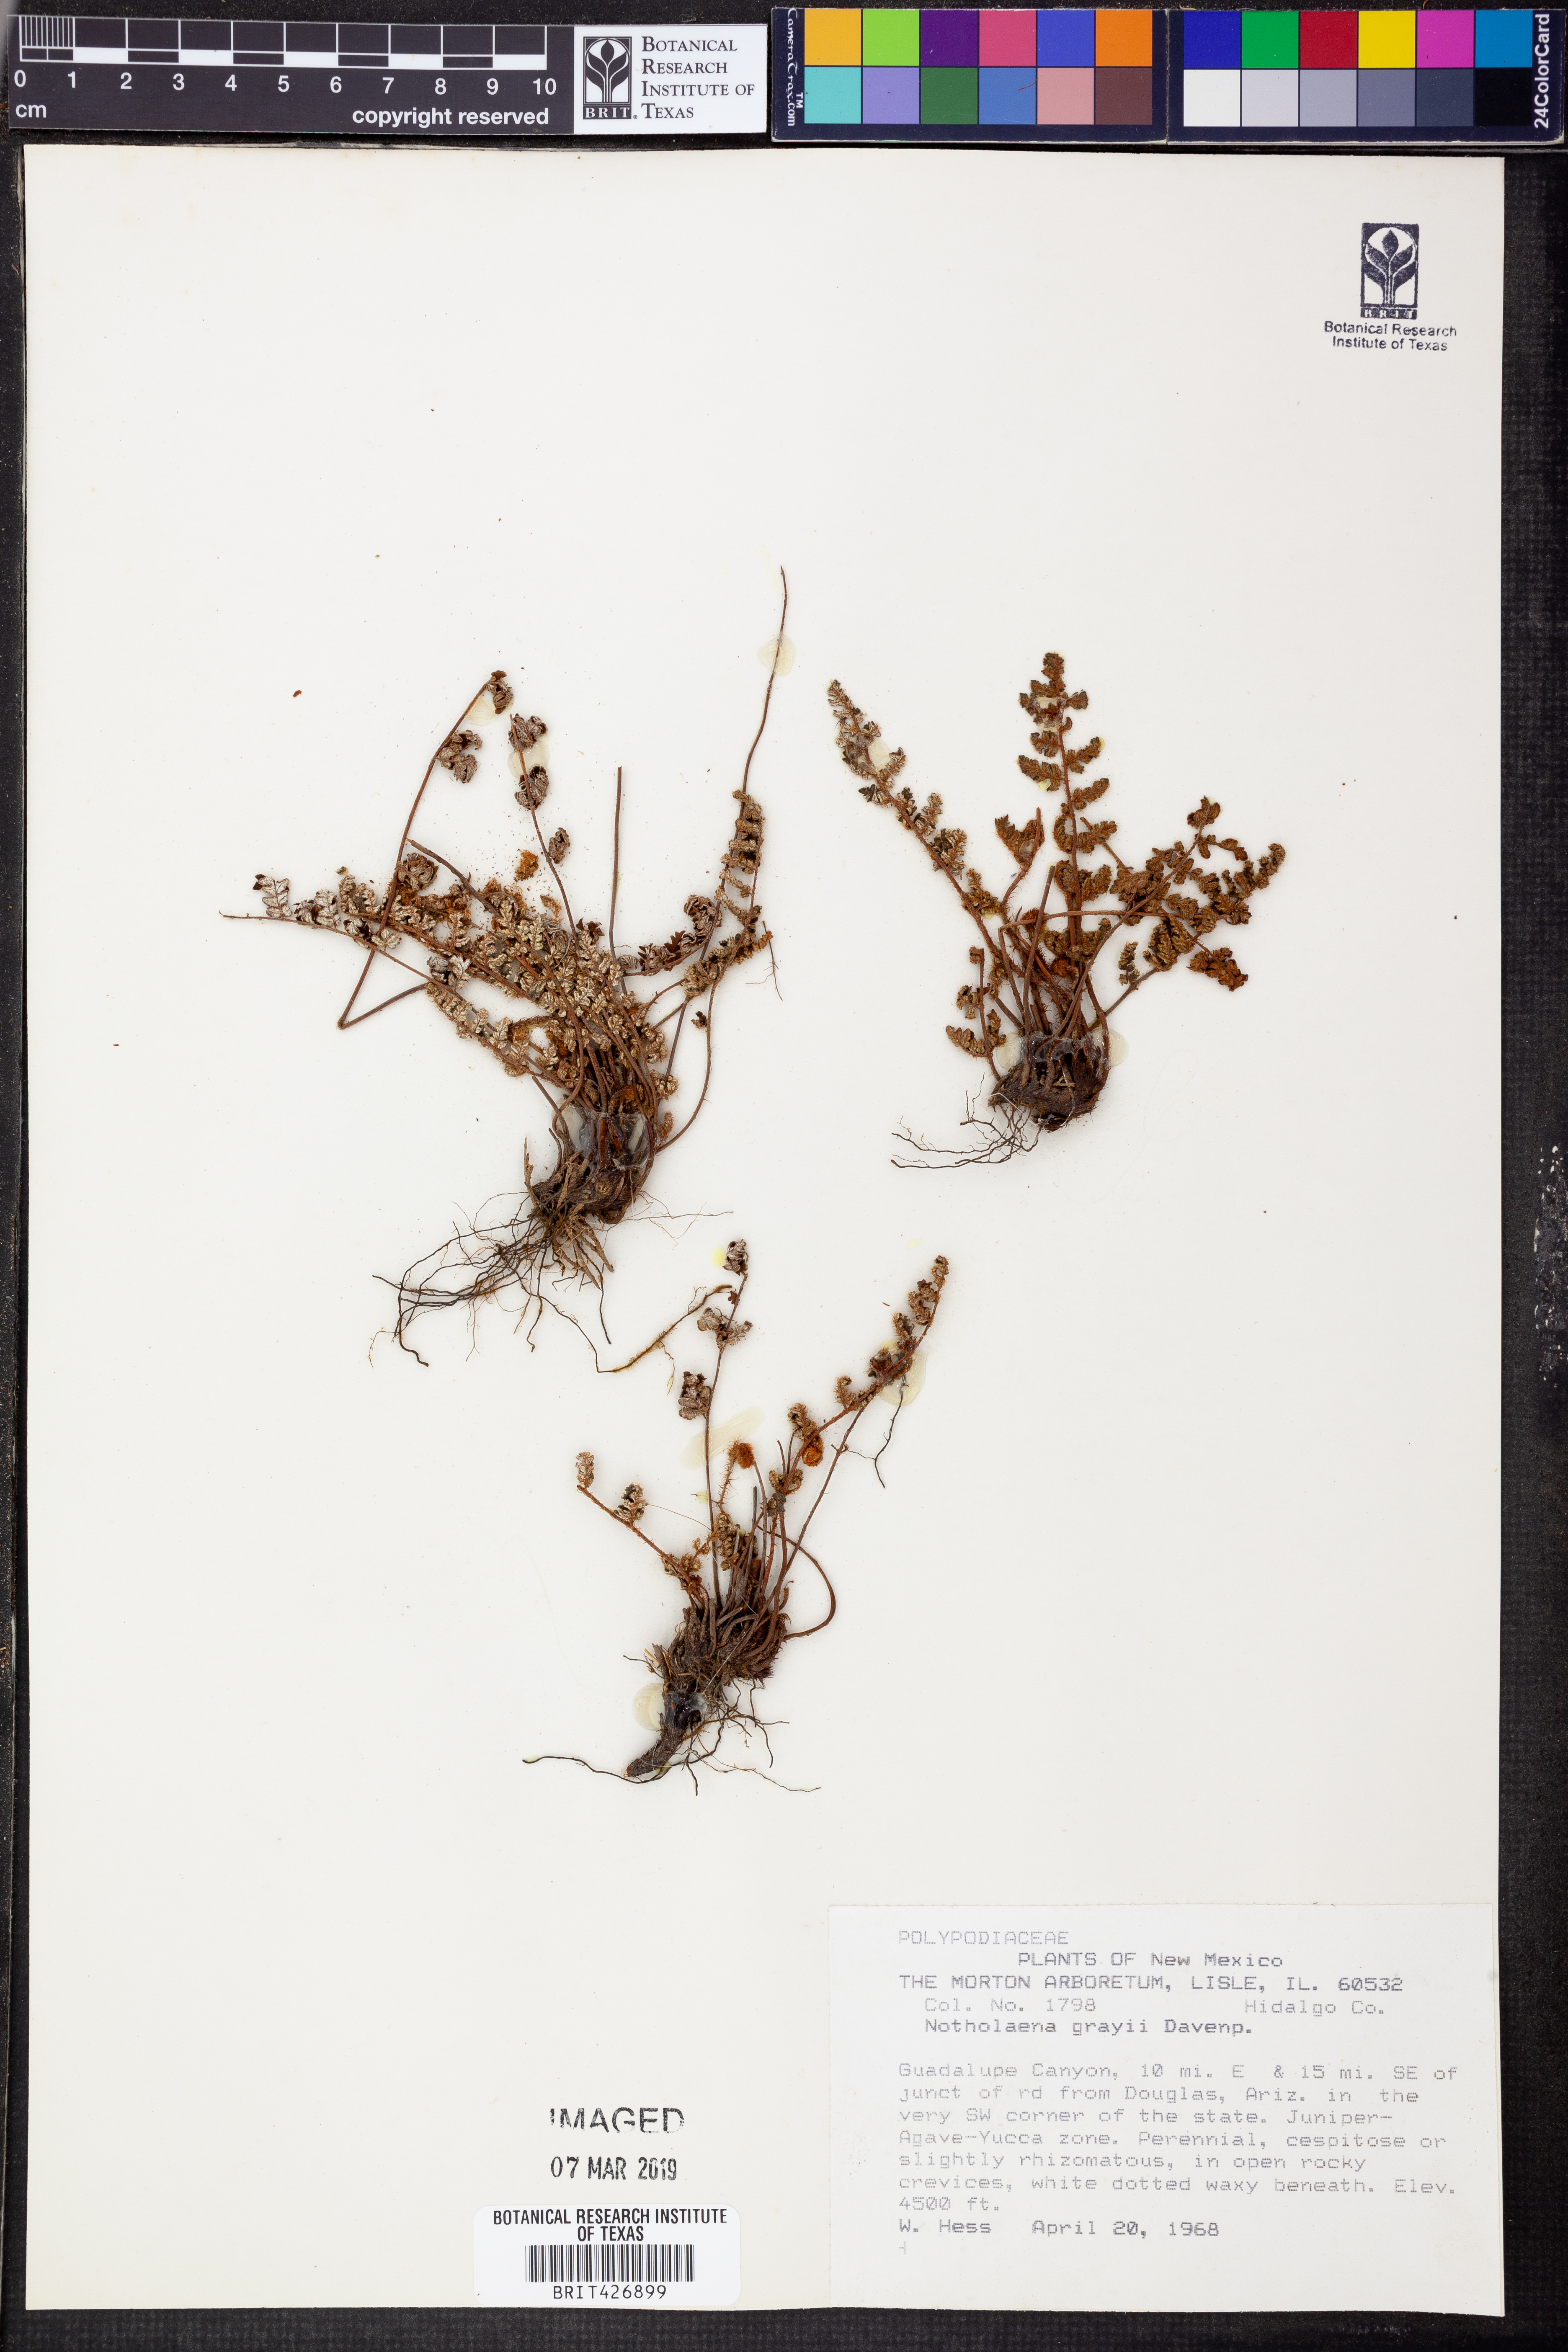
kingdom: Plantae
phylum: Tracheophyta
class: Polypodiopsida
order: Polypodiales
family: Pteridaceae
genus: Notholaena
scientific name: Notholaena grayi
